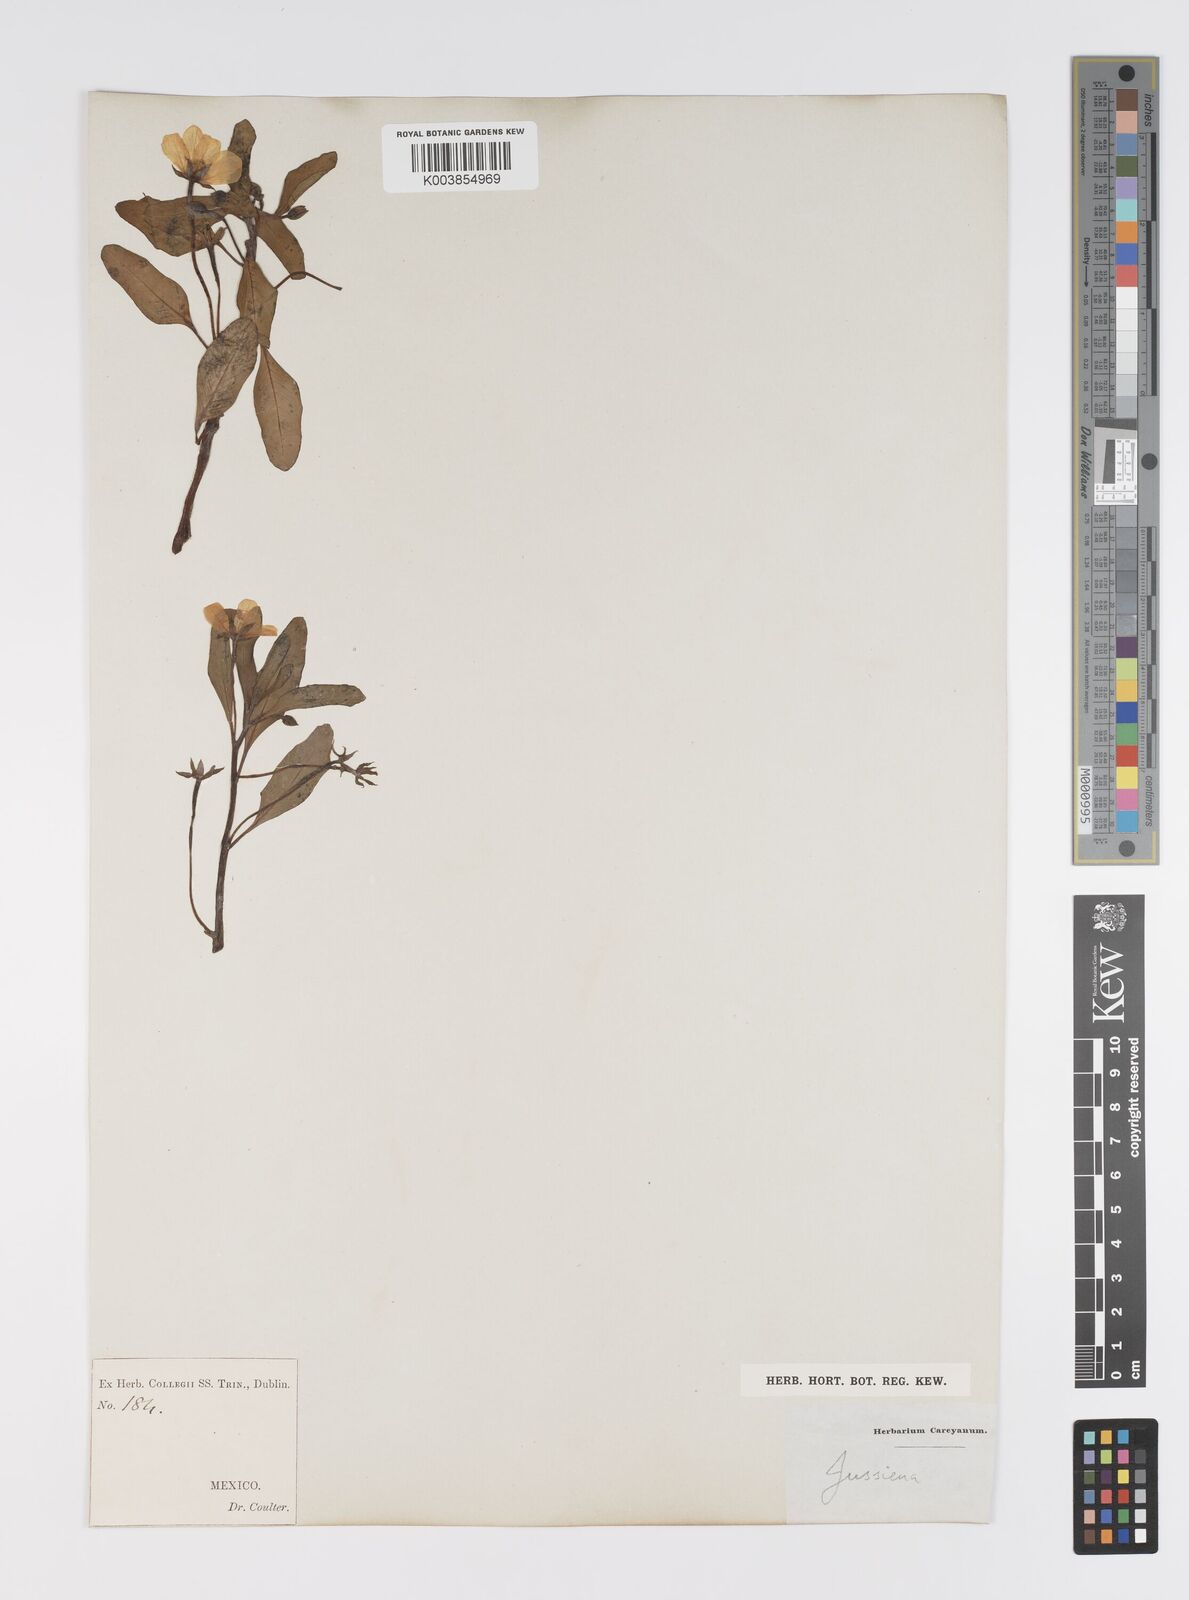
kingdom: Plantae
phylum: Tracheophyta
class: Magnoliopsida
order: Myrtales
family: Onagraceae
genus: Ludwigia
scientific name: Ludwigia
